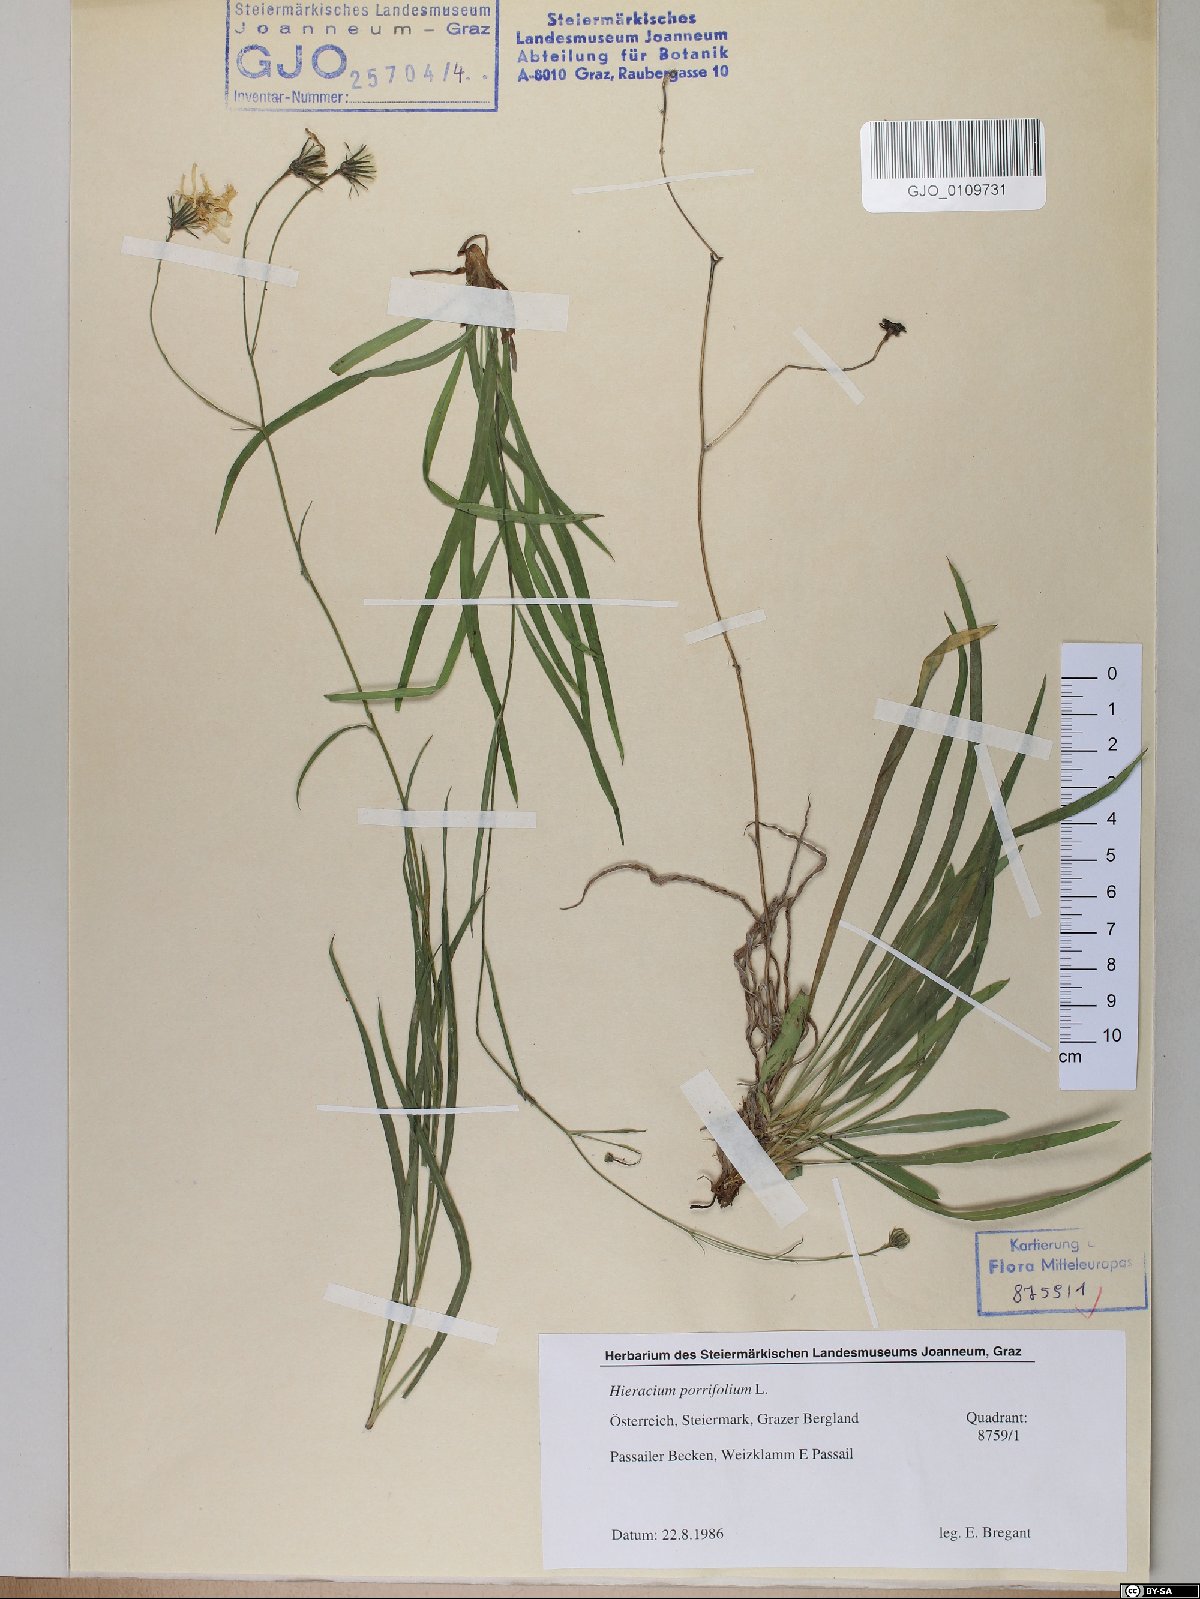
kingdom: Plantae
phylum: Tracheophyta
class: Magnoliopsida
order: Asterales
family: Asteraceae
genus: Hieracium
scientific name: Hieracium porrifolium
